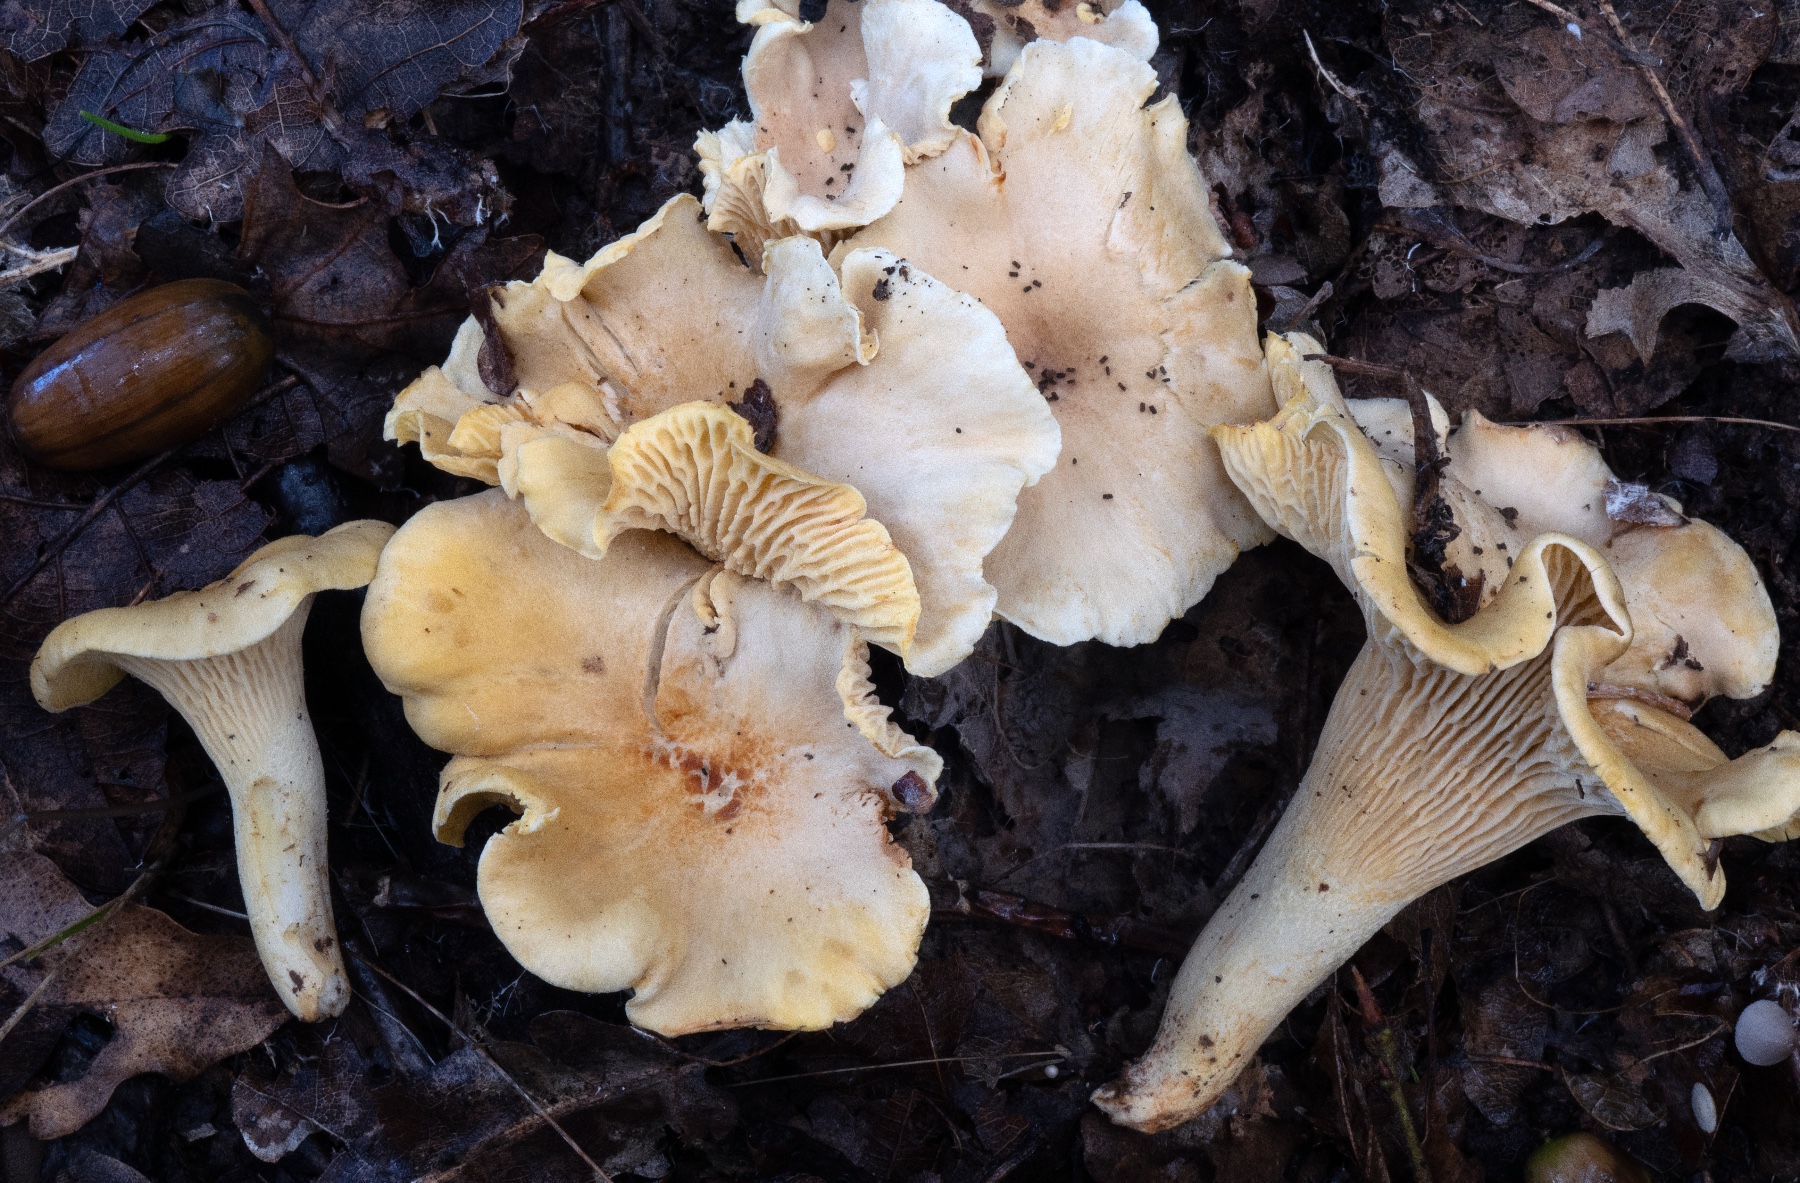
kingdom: Fungi
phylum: Basidiomycota
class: Agaricomycetes
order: Cantharellales
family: Hydnaceae
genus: Cantharellus
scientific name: Cantharellus ferruginascens
